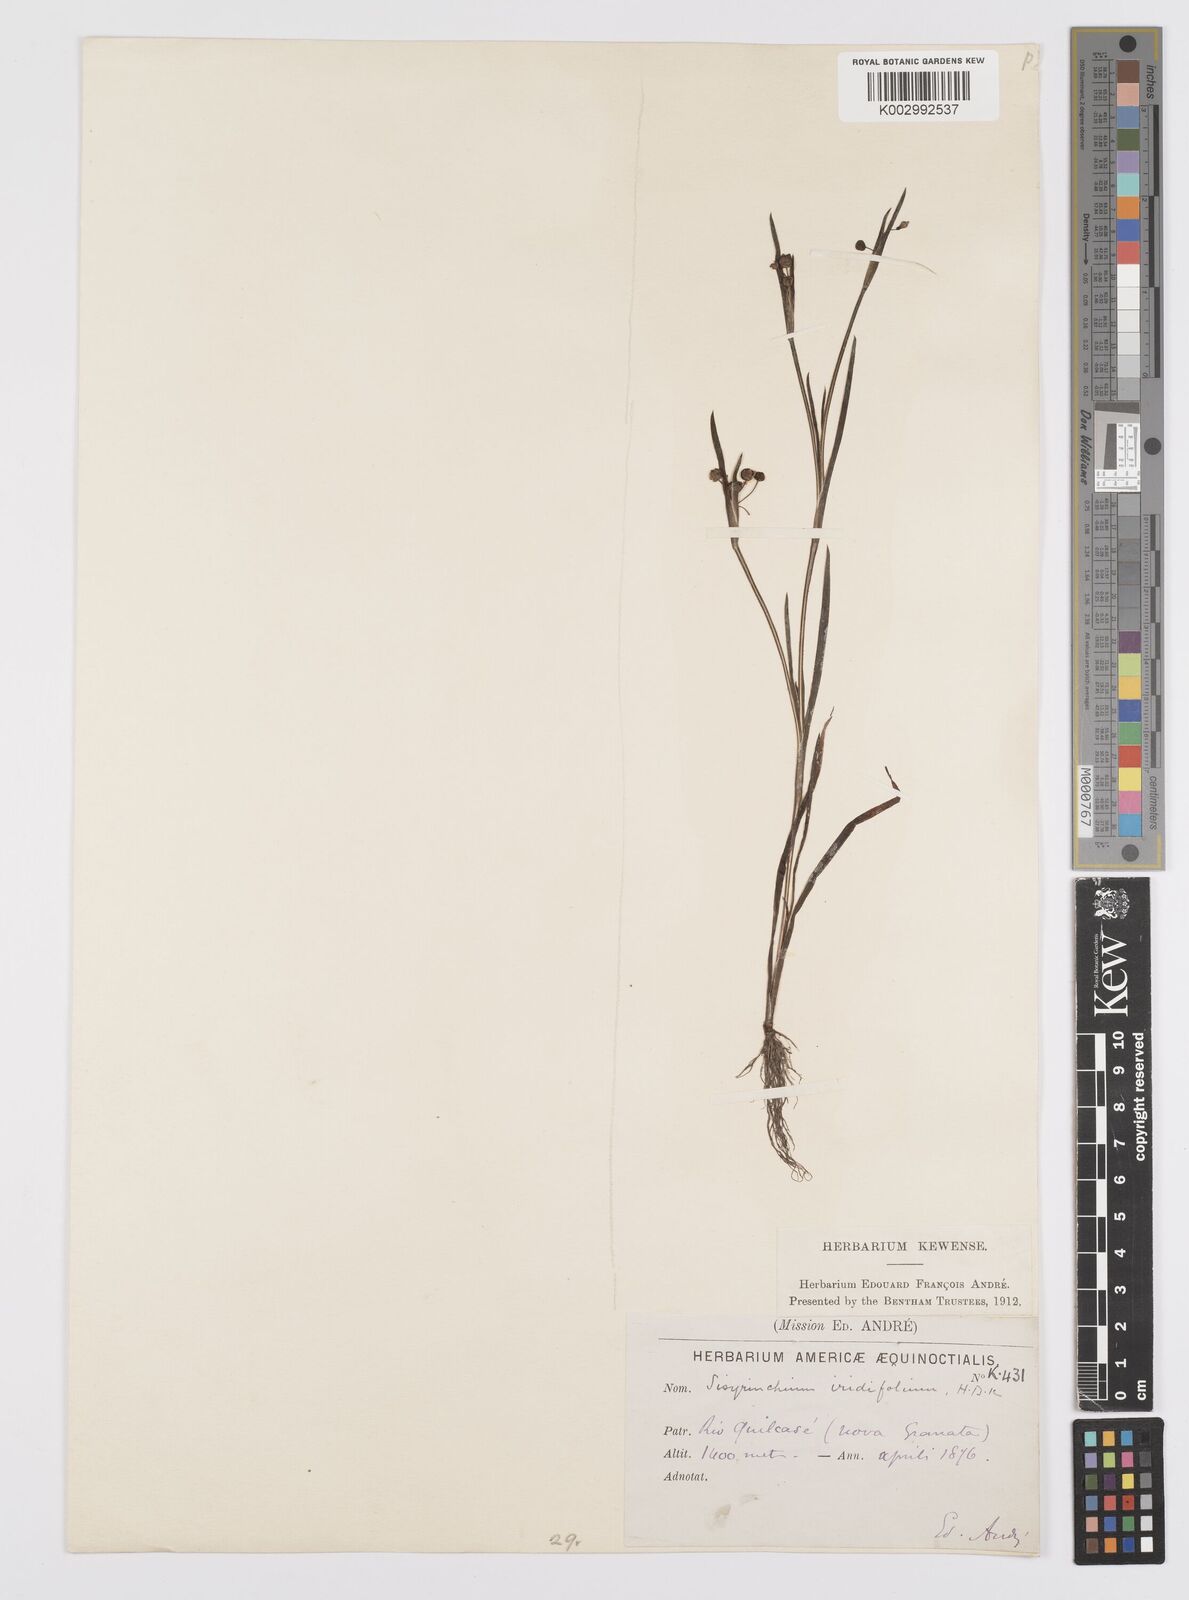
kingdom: Plantae
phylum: Tracheophyta
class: Liliopsida
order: Asparagales
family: Iridaceae
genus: Sisyrinchium
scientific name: Sisyrinchium micranthum
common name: Bermuda pigroot
